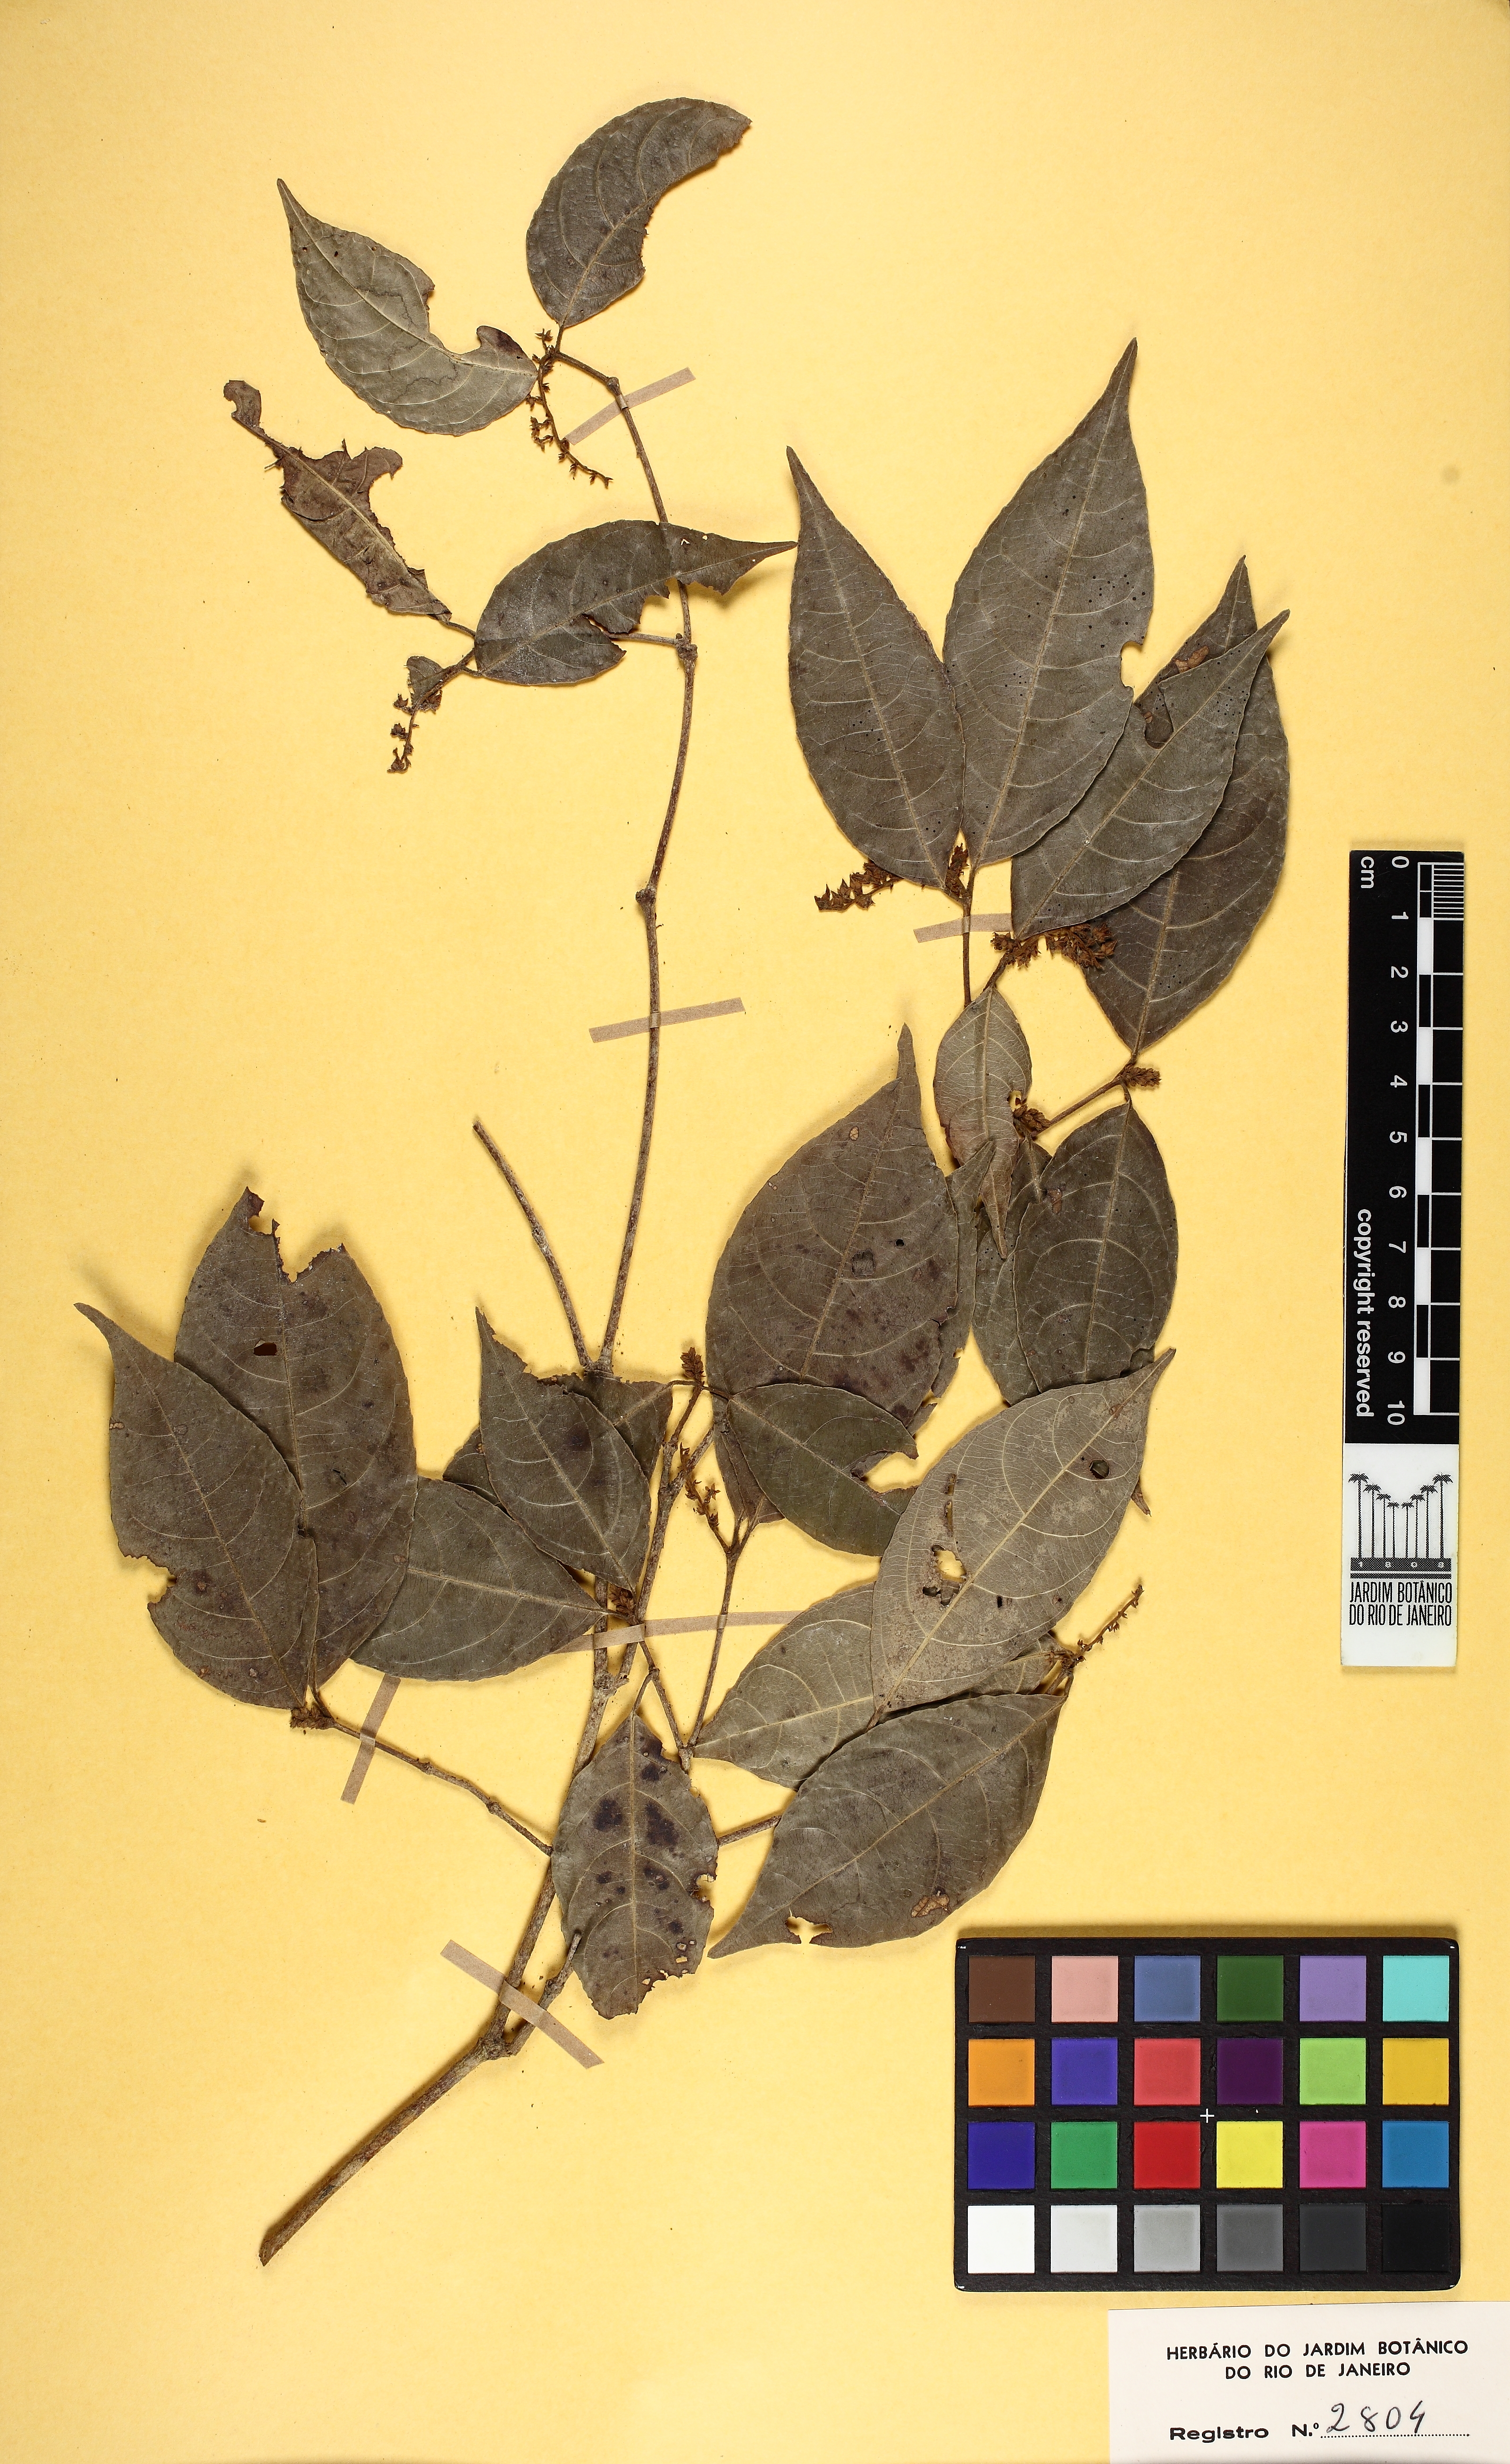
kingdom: Plantae
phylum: Tracheophyta
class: Magnoliopsida
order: Malpighiales
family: Violaceae
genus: Rinorea
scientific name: Rinorea pubiflora
